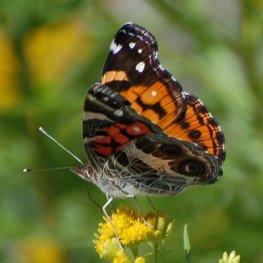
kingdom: Animalia
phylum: Arthropoda
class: Insecta
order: Lepidoptera
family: Nymphalidae
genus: Vanessa
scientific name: Vanessa virginiensis
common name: American Lady
